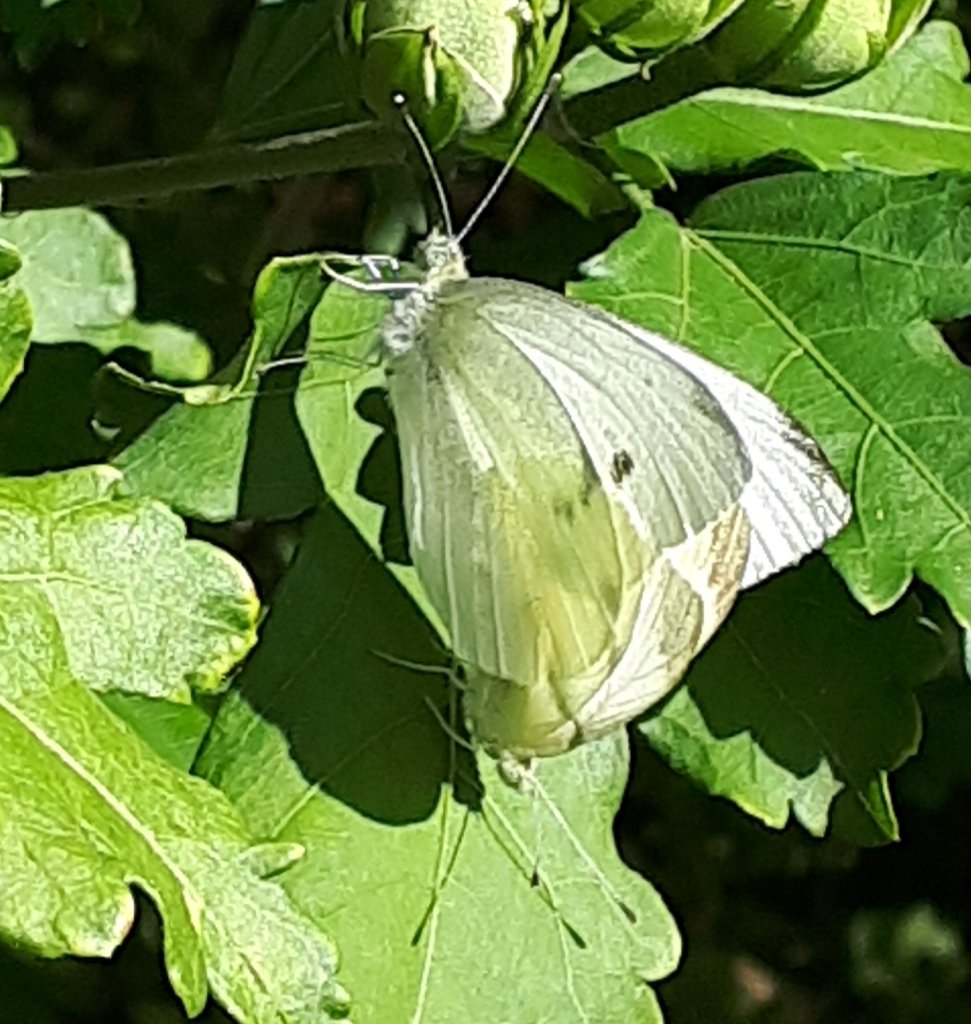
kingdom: Animalia
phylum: Arthropoda
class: Insecta
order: Lepidoptera
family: Pieridae
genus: Pieris
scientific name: Pieris rapae
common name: Cabbage White
